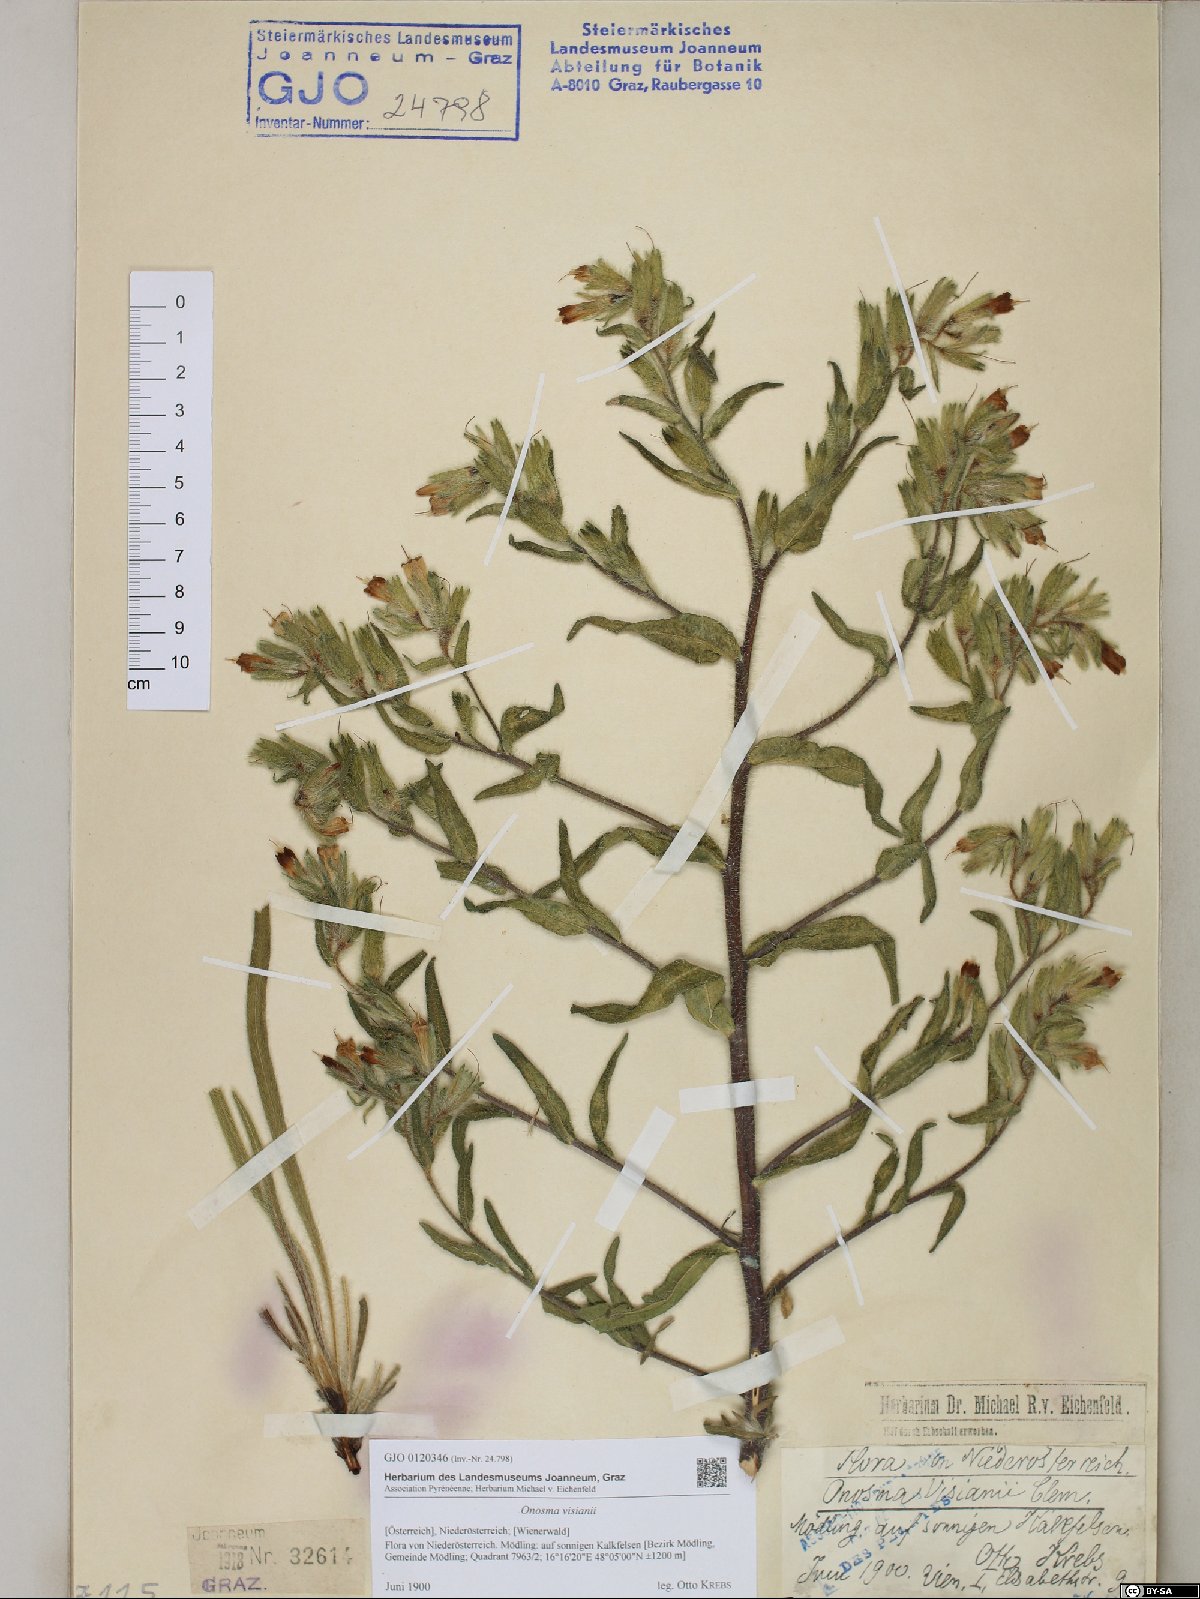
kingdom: Plantae
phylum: Tracheophyta
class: Magnoliopsida
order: Boraginales
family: Boraginaceae
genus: Onosma
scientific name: Onosma visianii
